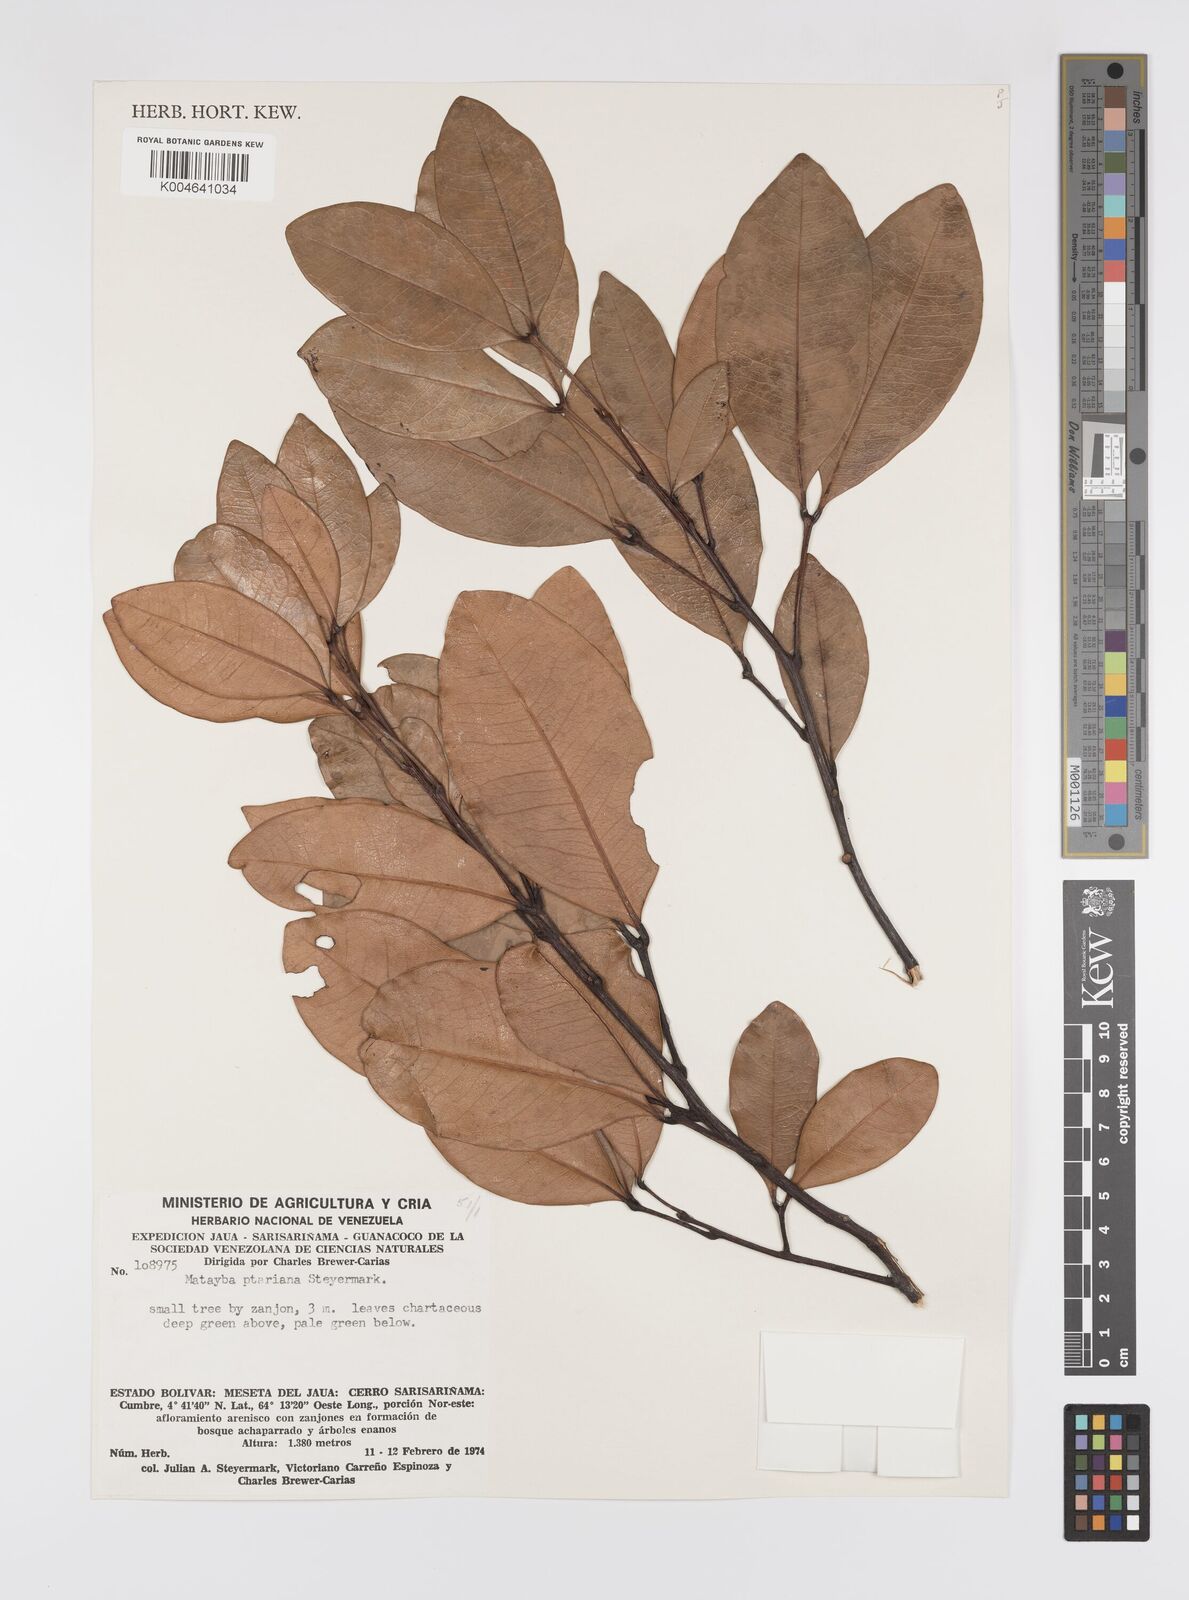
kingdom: Plantae
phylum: Tracheophyta
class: Magnoliopsida
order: Sapindales
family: Sapindaceae
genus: Matayba
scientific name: Matayba ptariana
